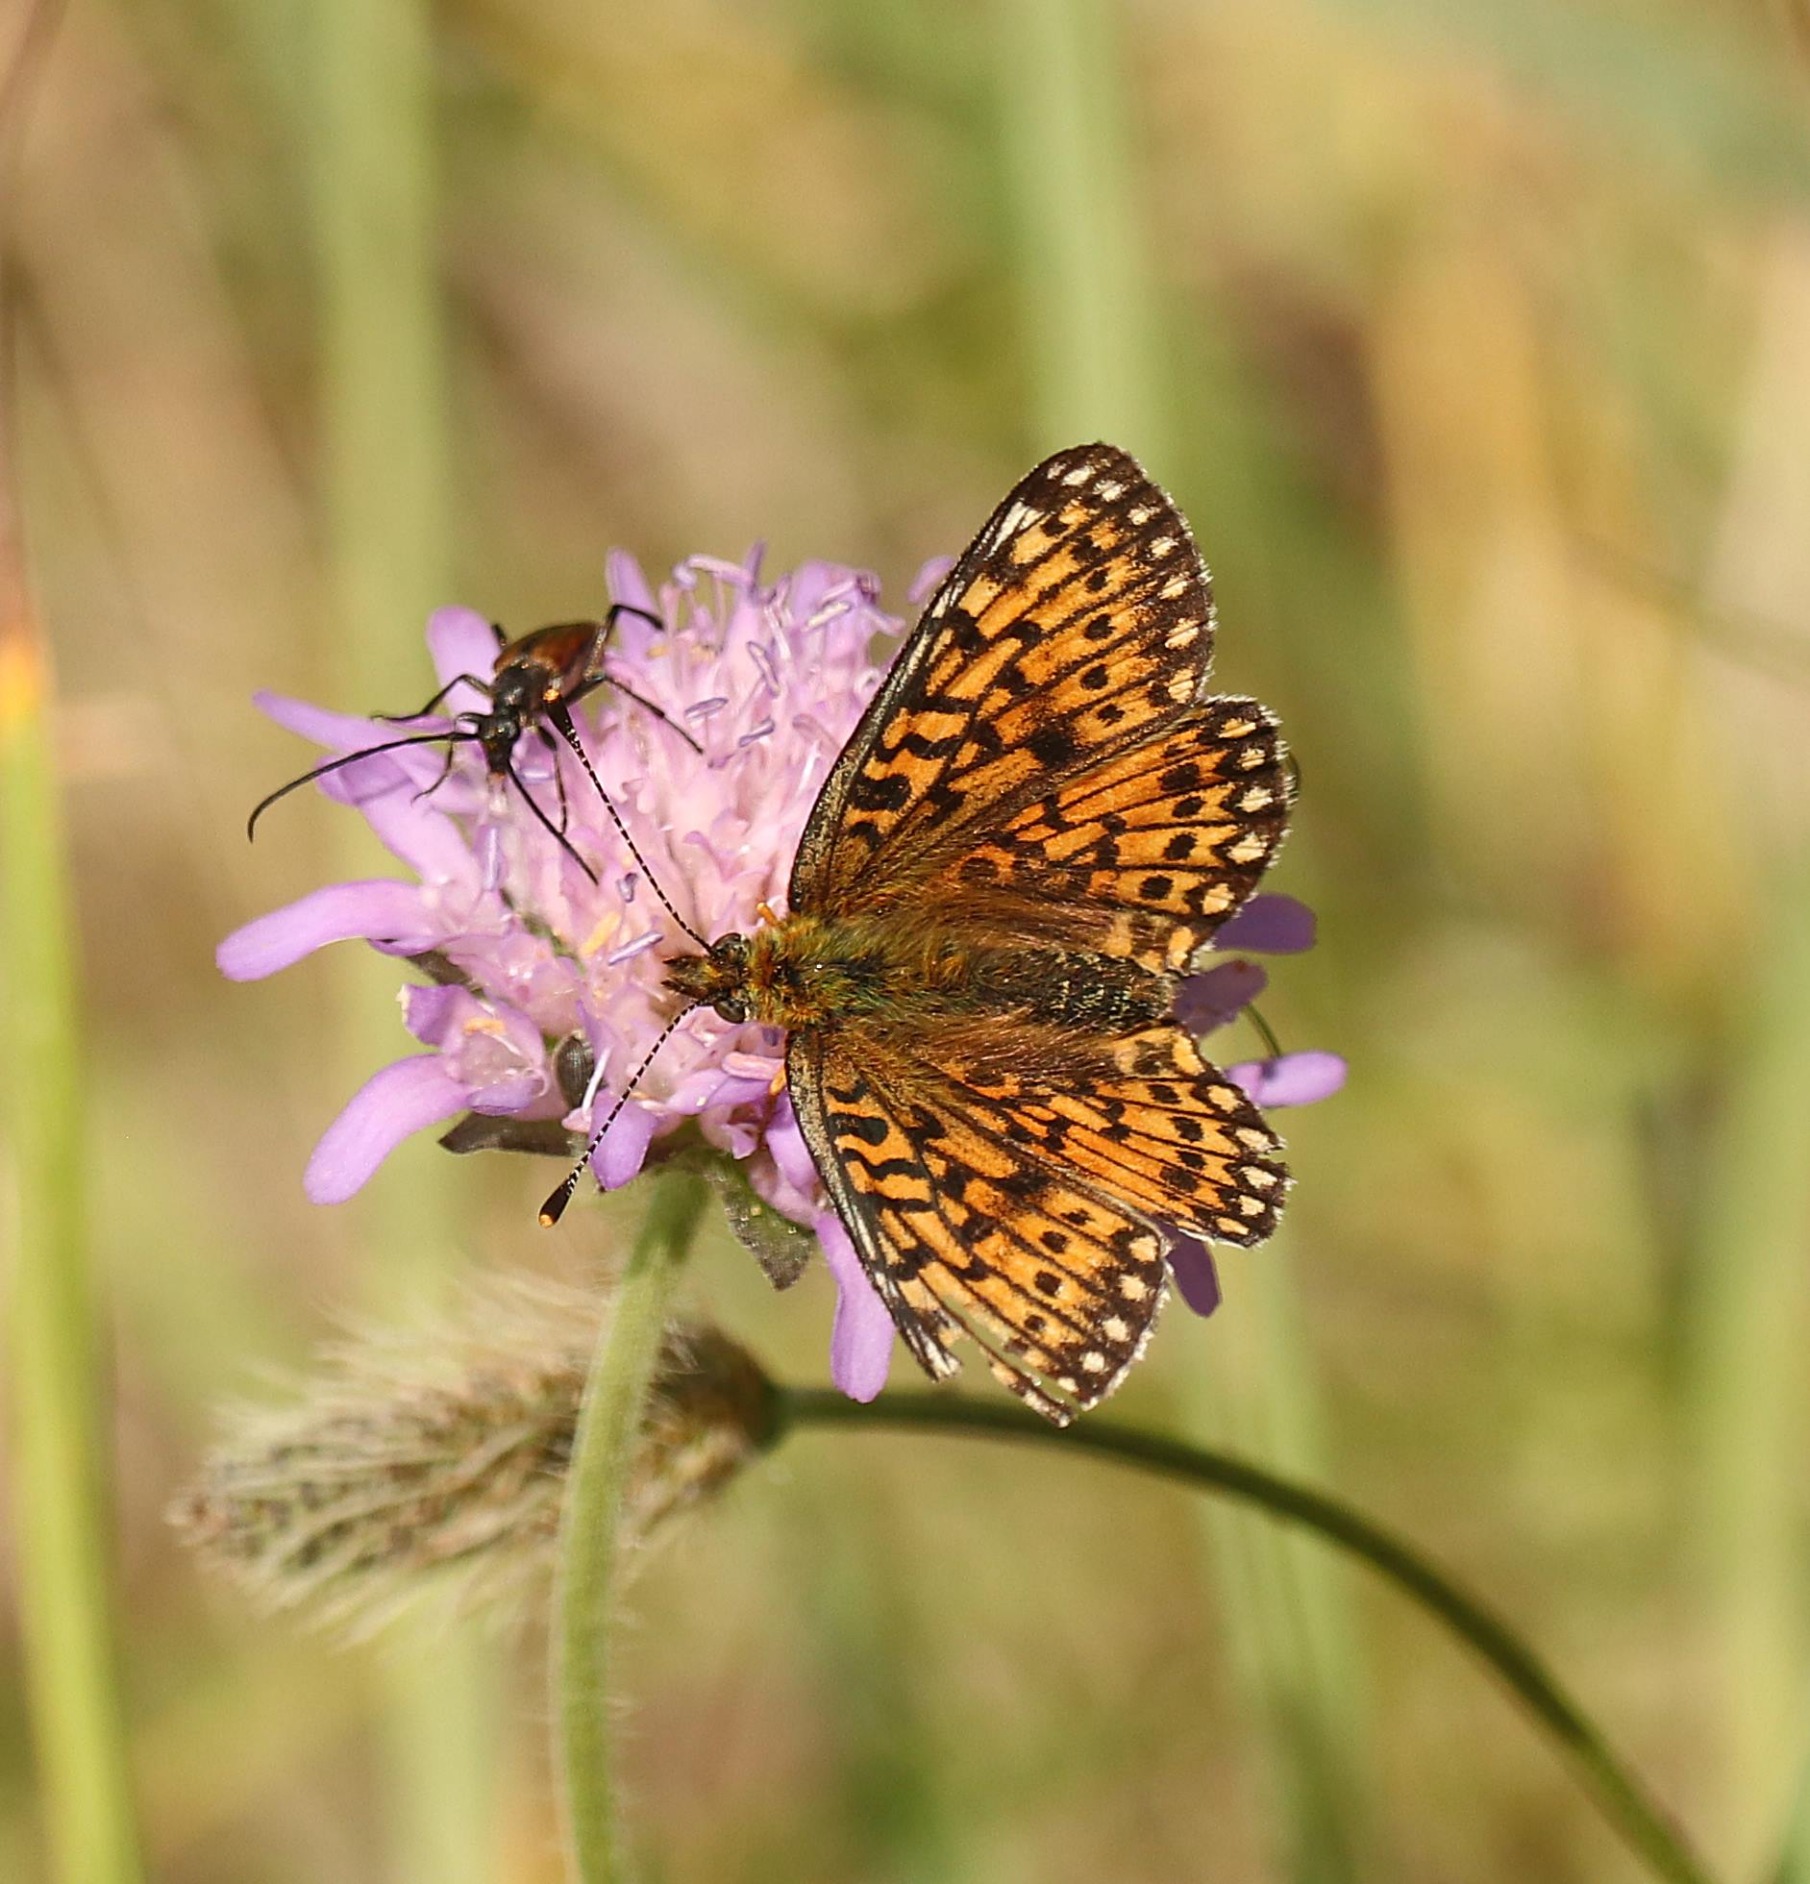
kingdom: Animalia
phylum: Arthropoda
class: Insecta
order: Lepidoptera
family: Nymphalidae
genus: Boloria
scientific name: Boloria selene
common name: Brunlig perlemorsommerfugl
